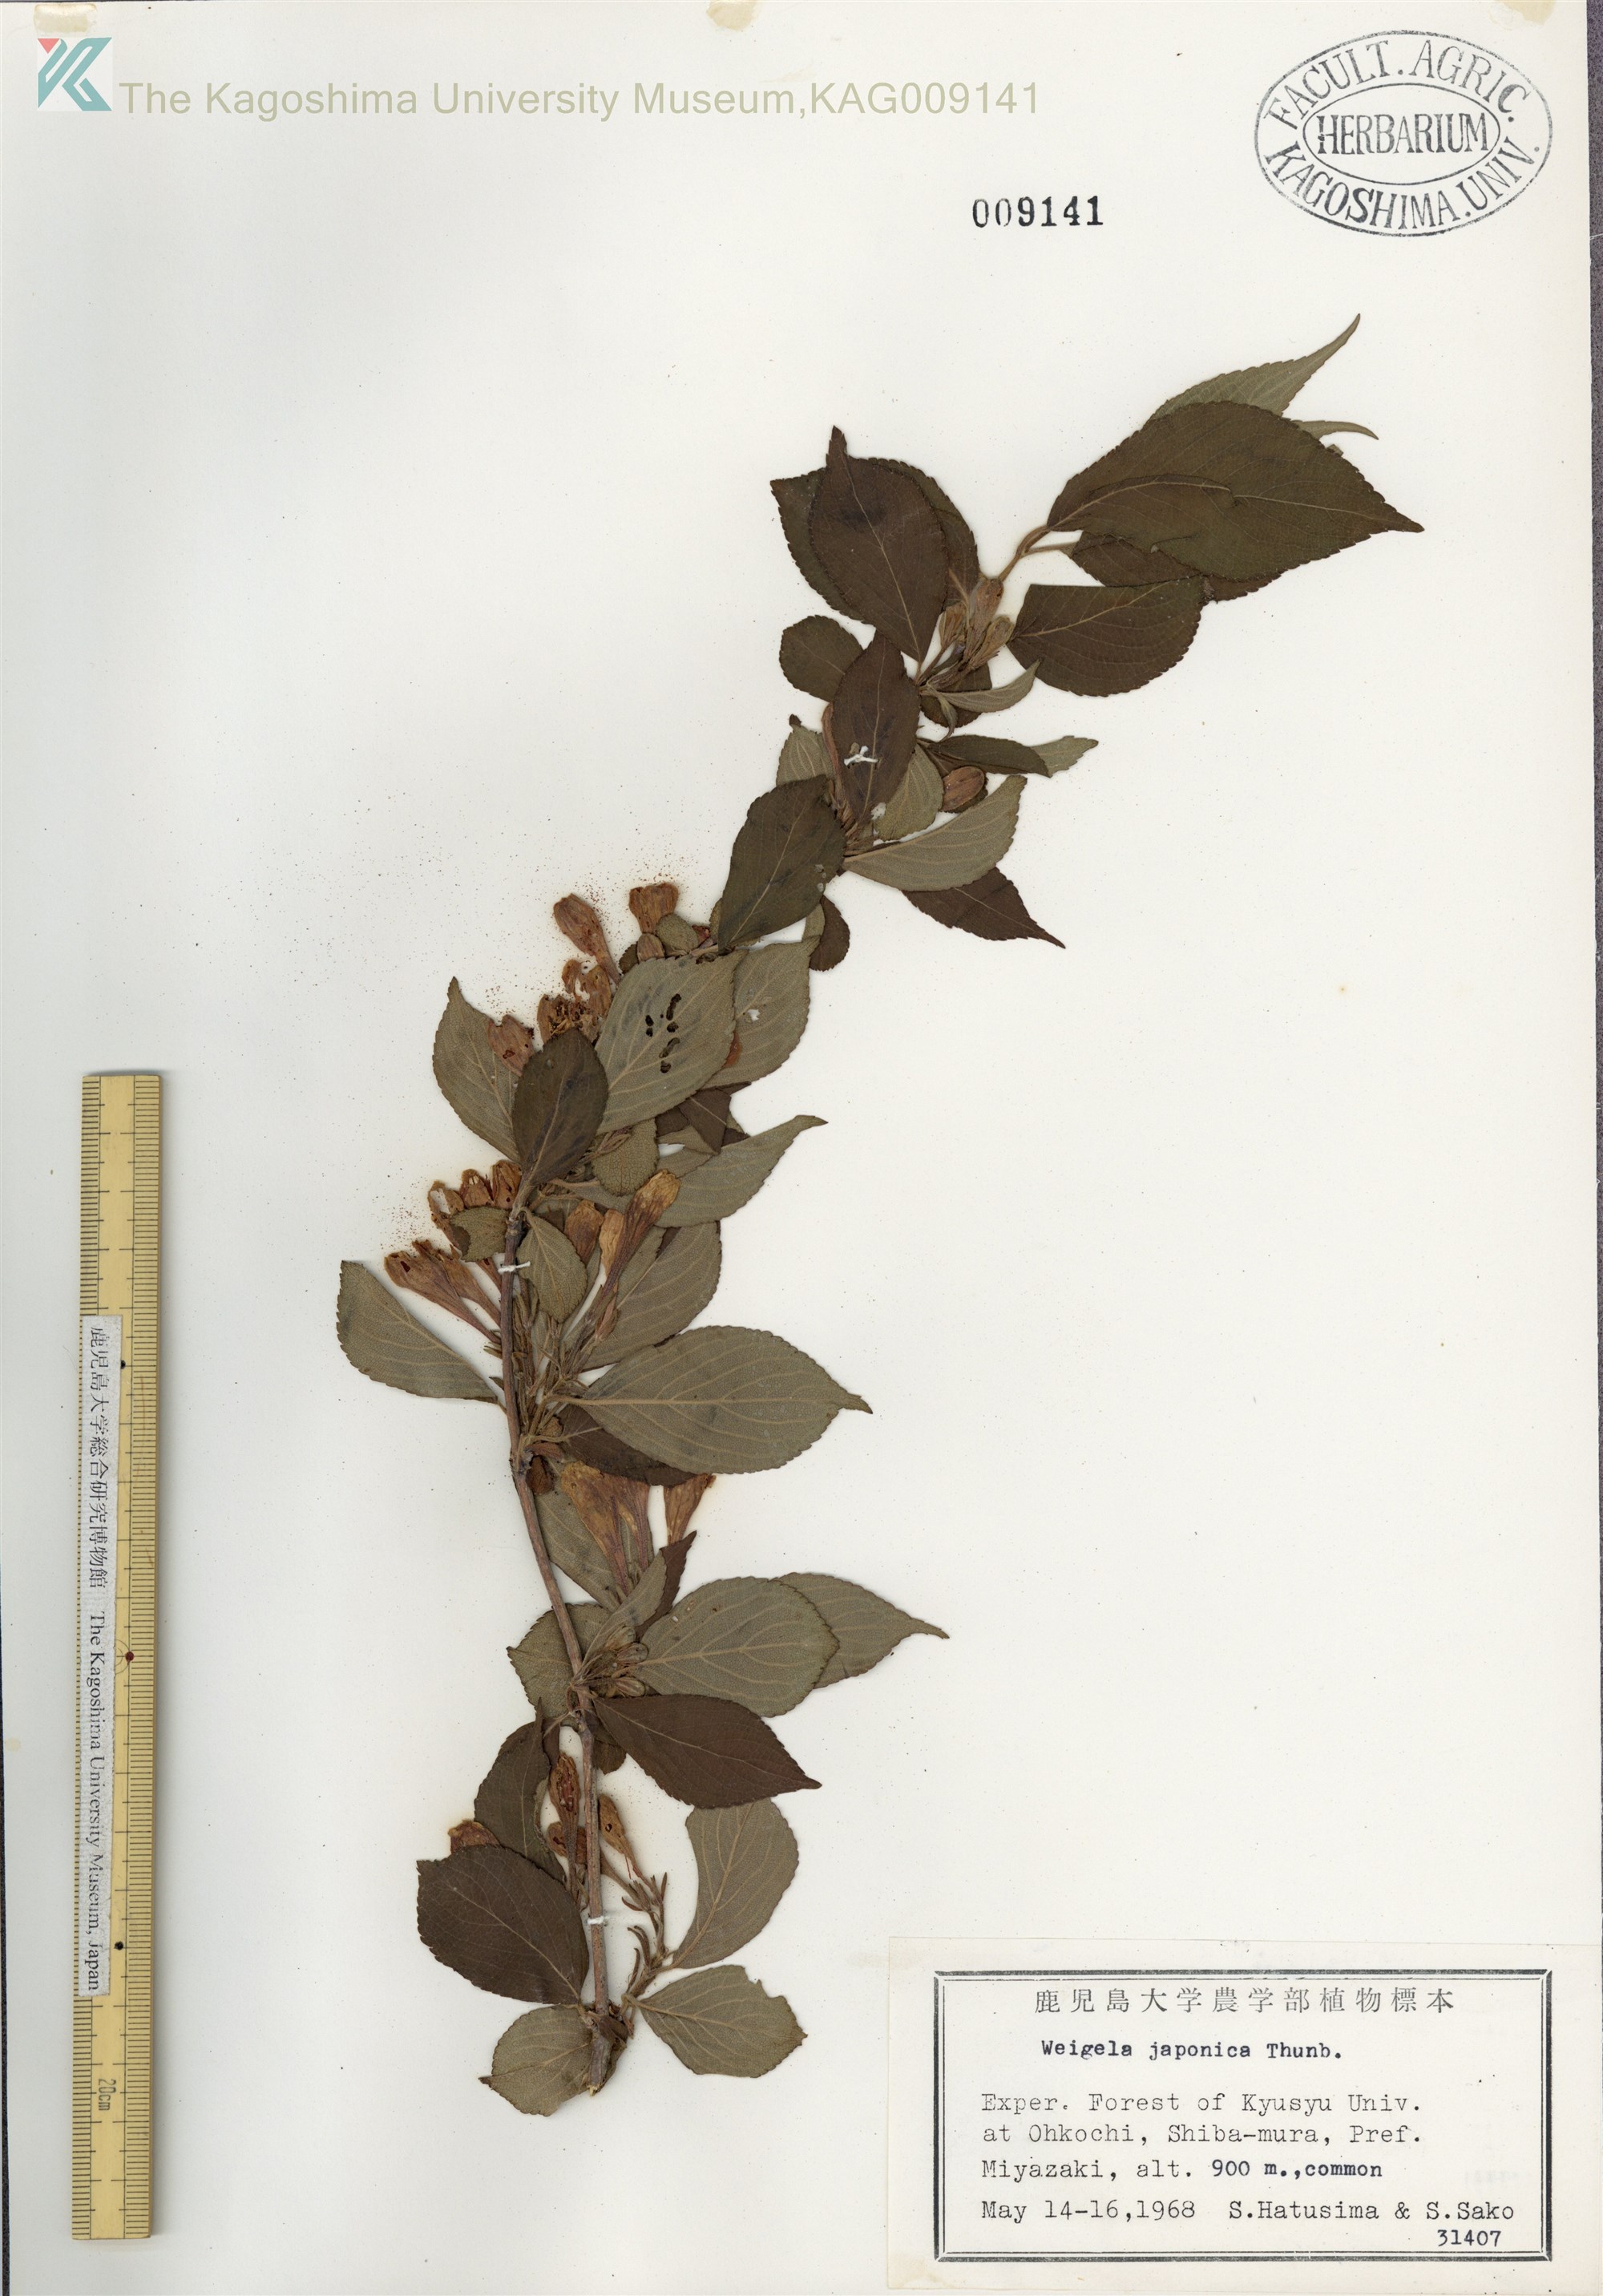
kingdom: Plantae
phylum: Tracheophyta
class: Magnoliopsida
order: Dipsacales
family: Caprifoliaceae
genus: Weigela
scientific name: Weigela japonica
